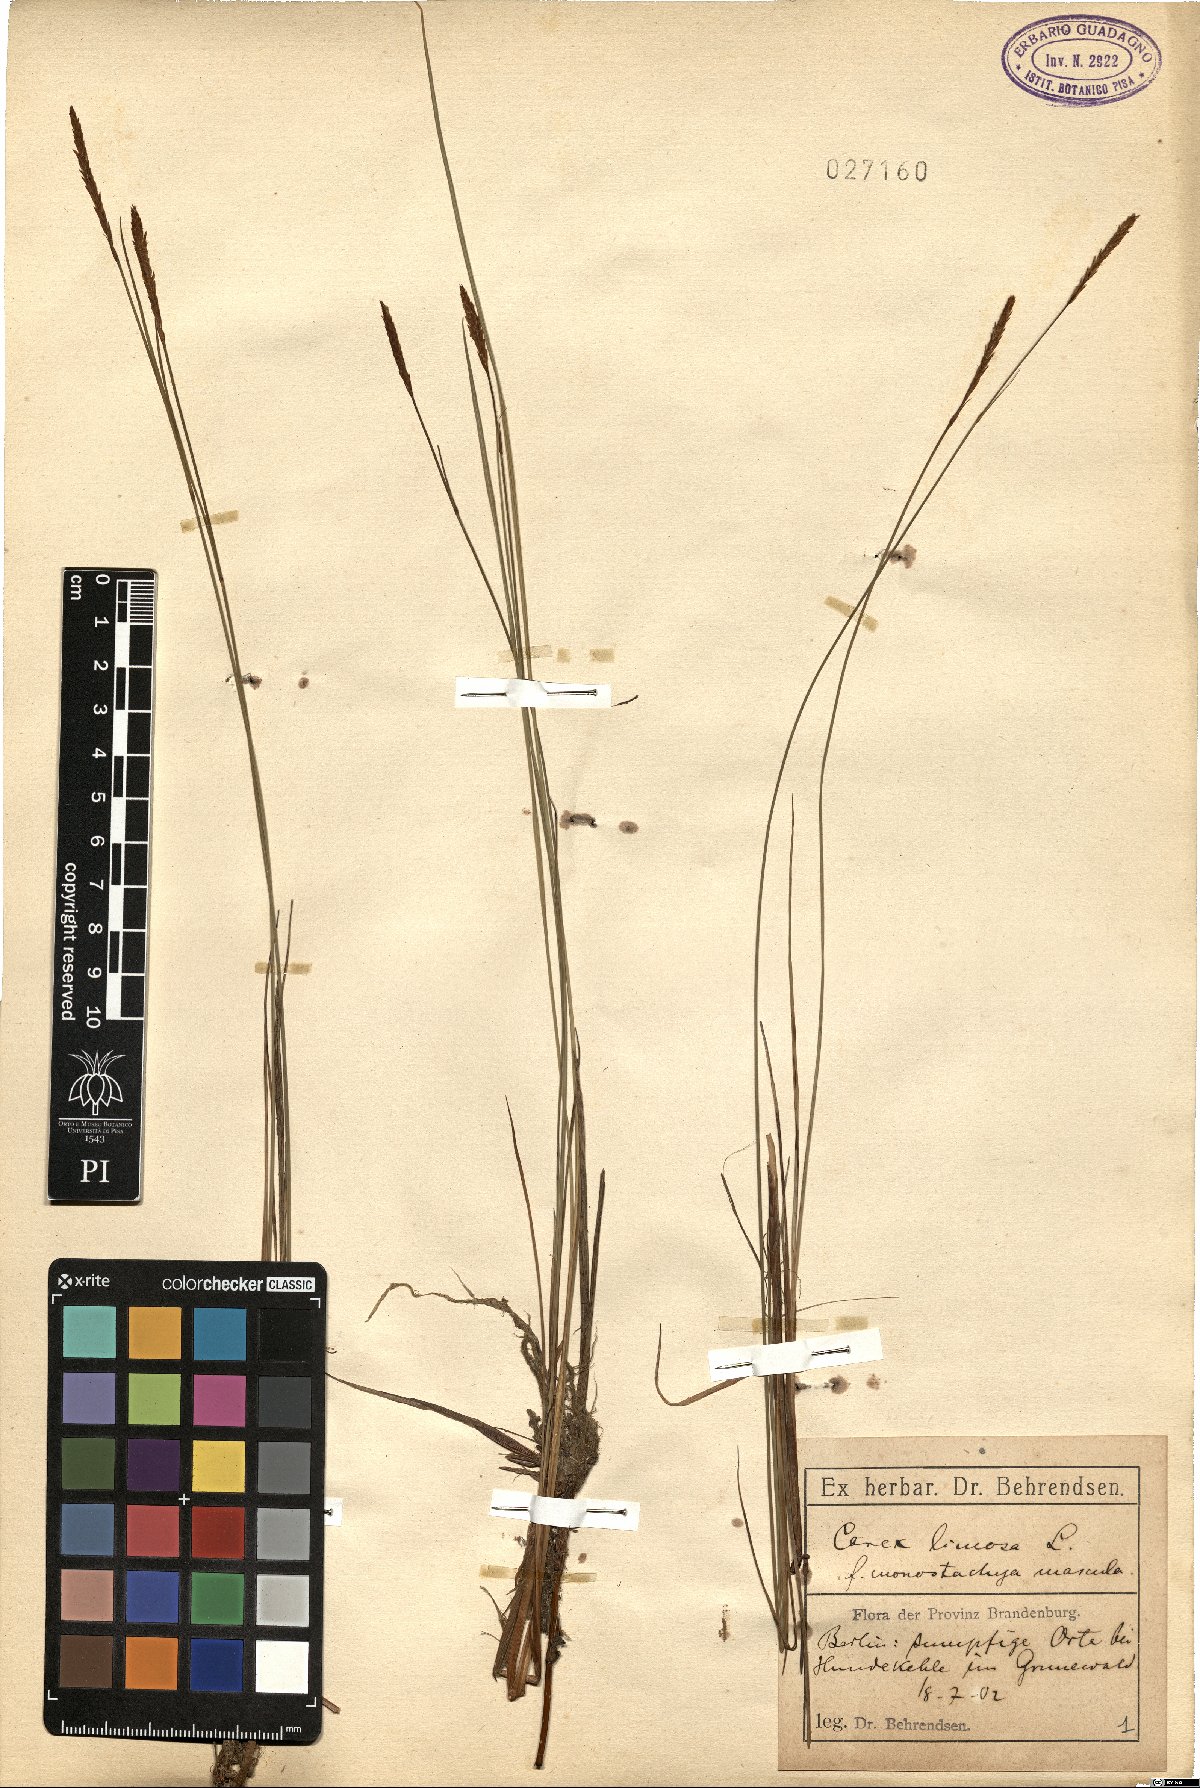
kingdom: Plantae
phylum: Tracheophyta
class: Liliopsida
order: Poales
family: Cyperaceae
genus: Carex
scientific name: Carex limosa
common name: Bog sedge
